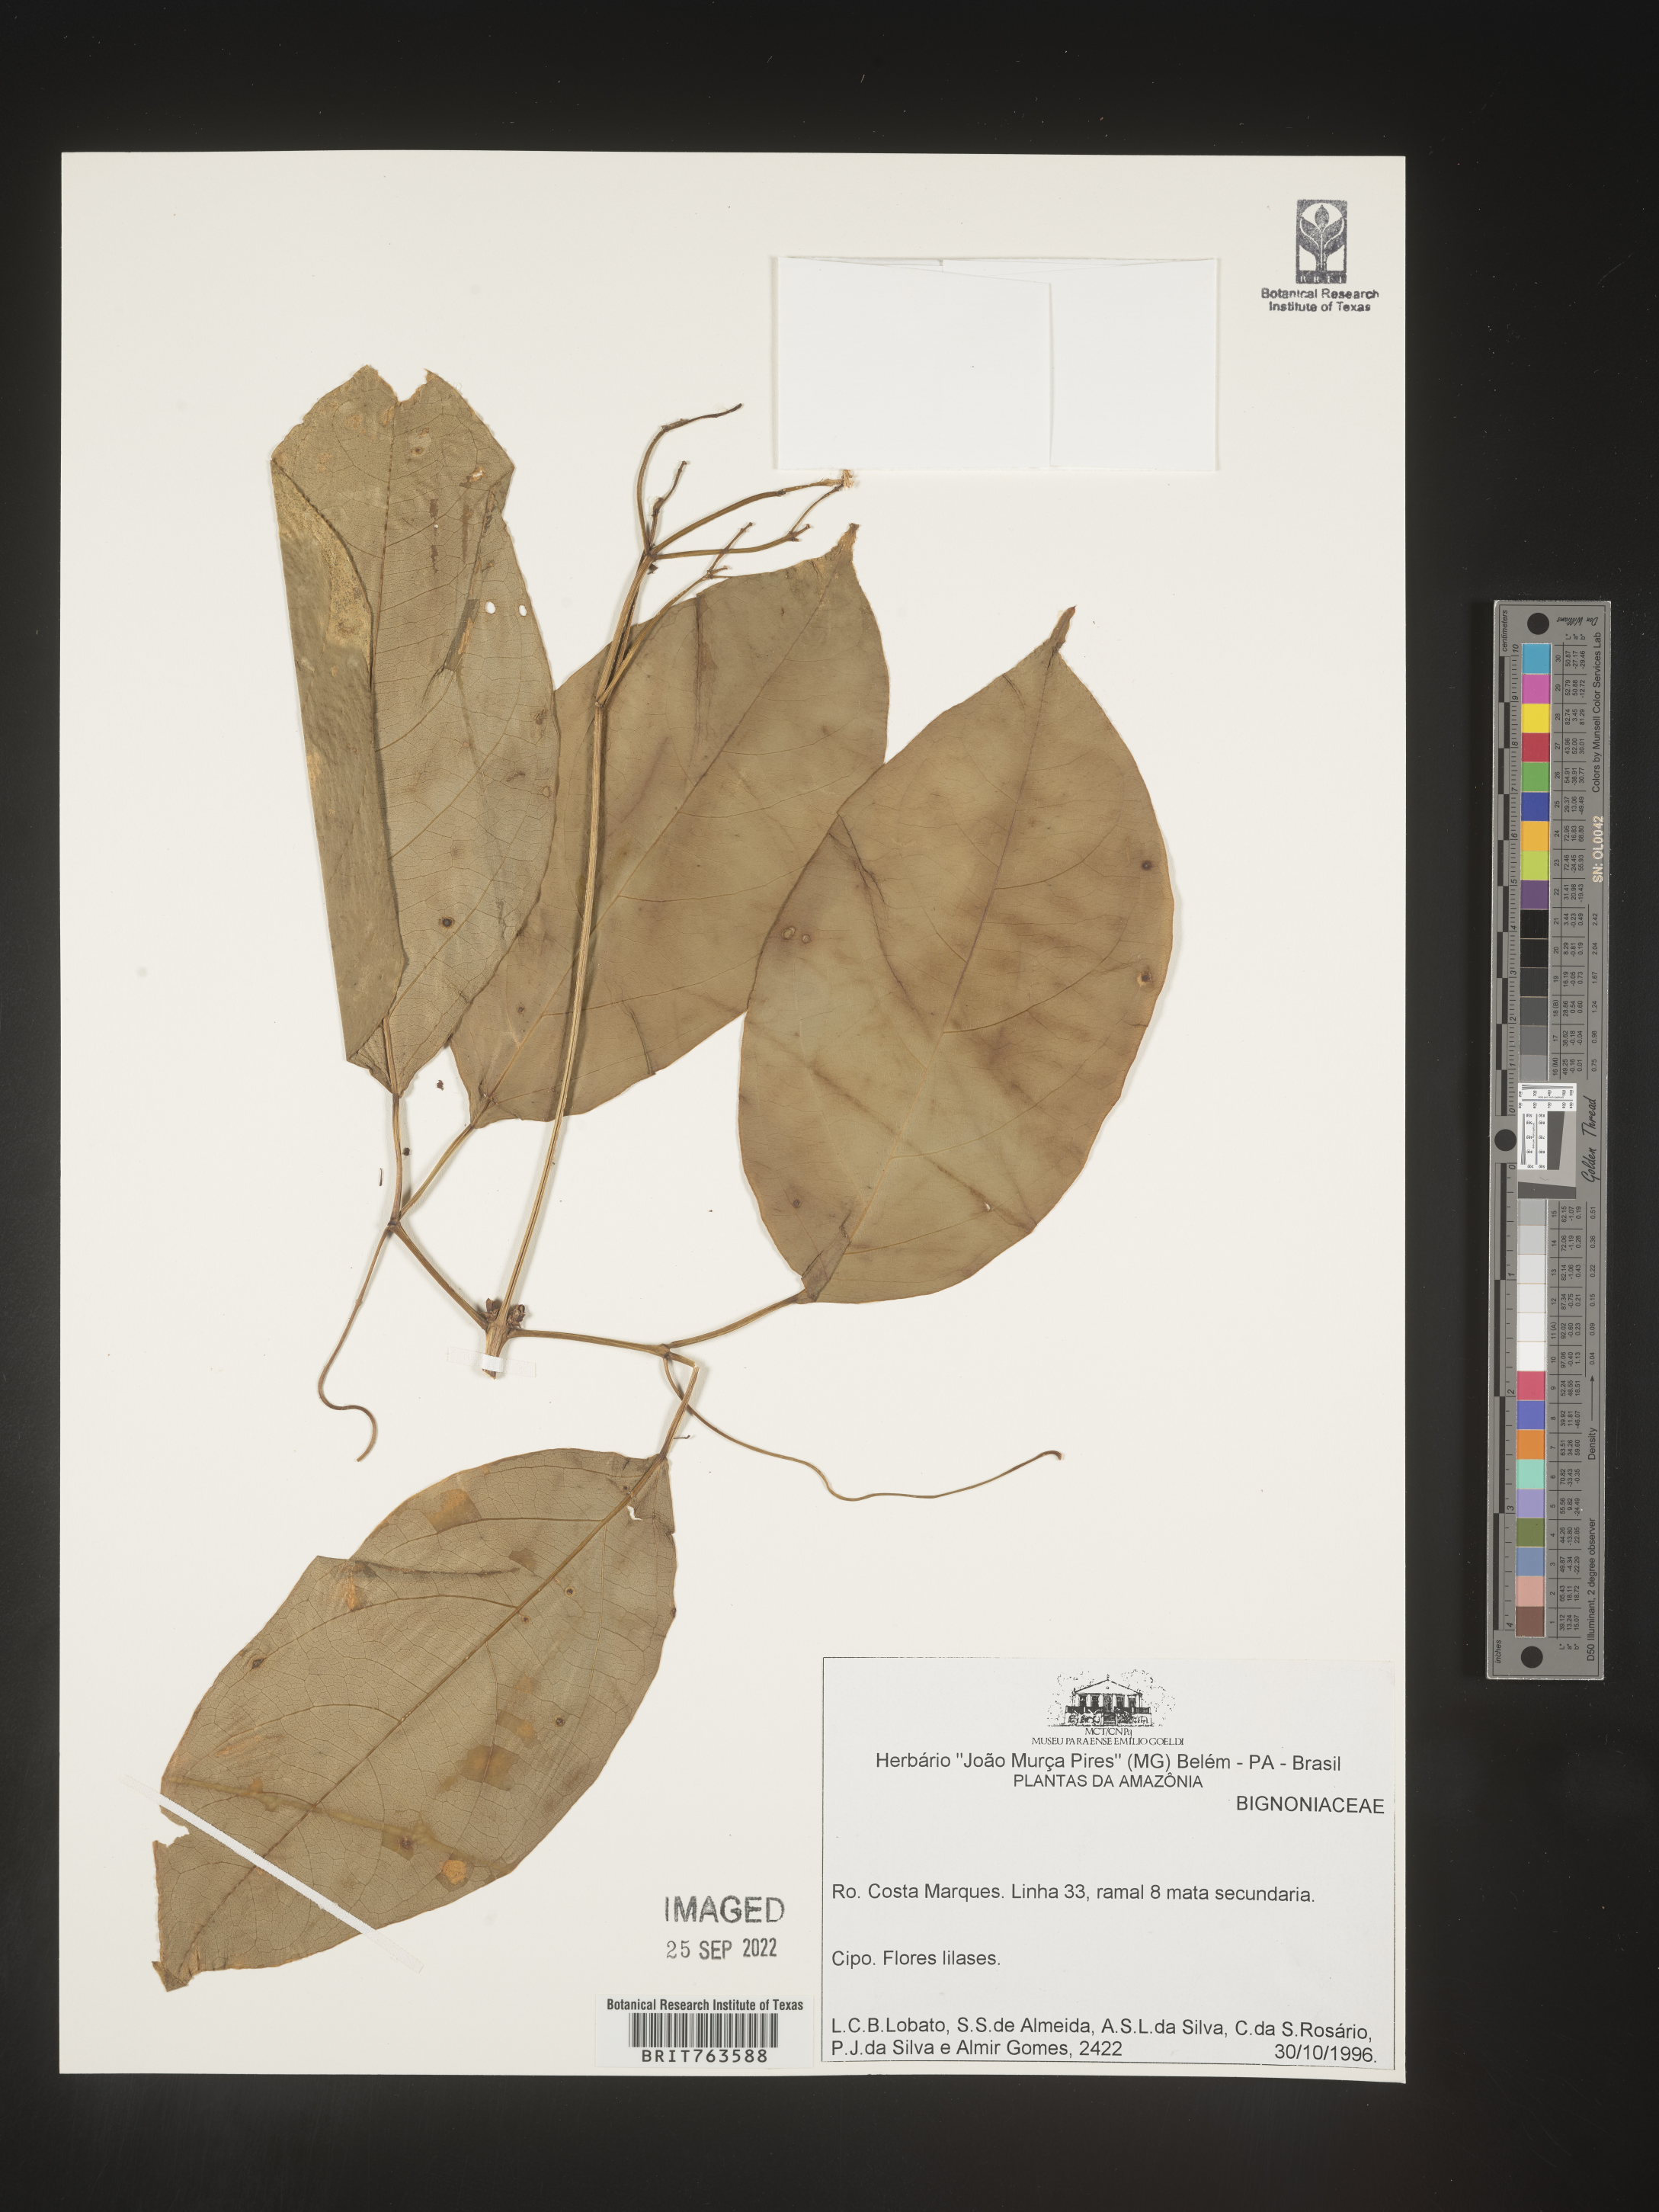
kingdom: Plantae
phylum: Tracheophyta
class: Magnoliopsida
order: Lamiales
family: Bignoniaceae
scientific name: Bignoniaceae
